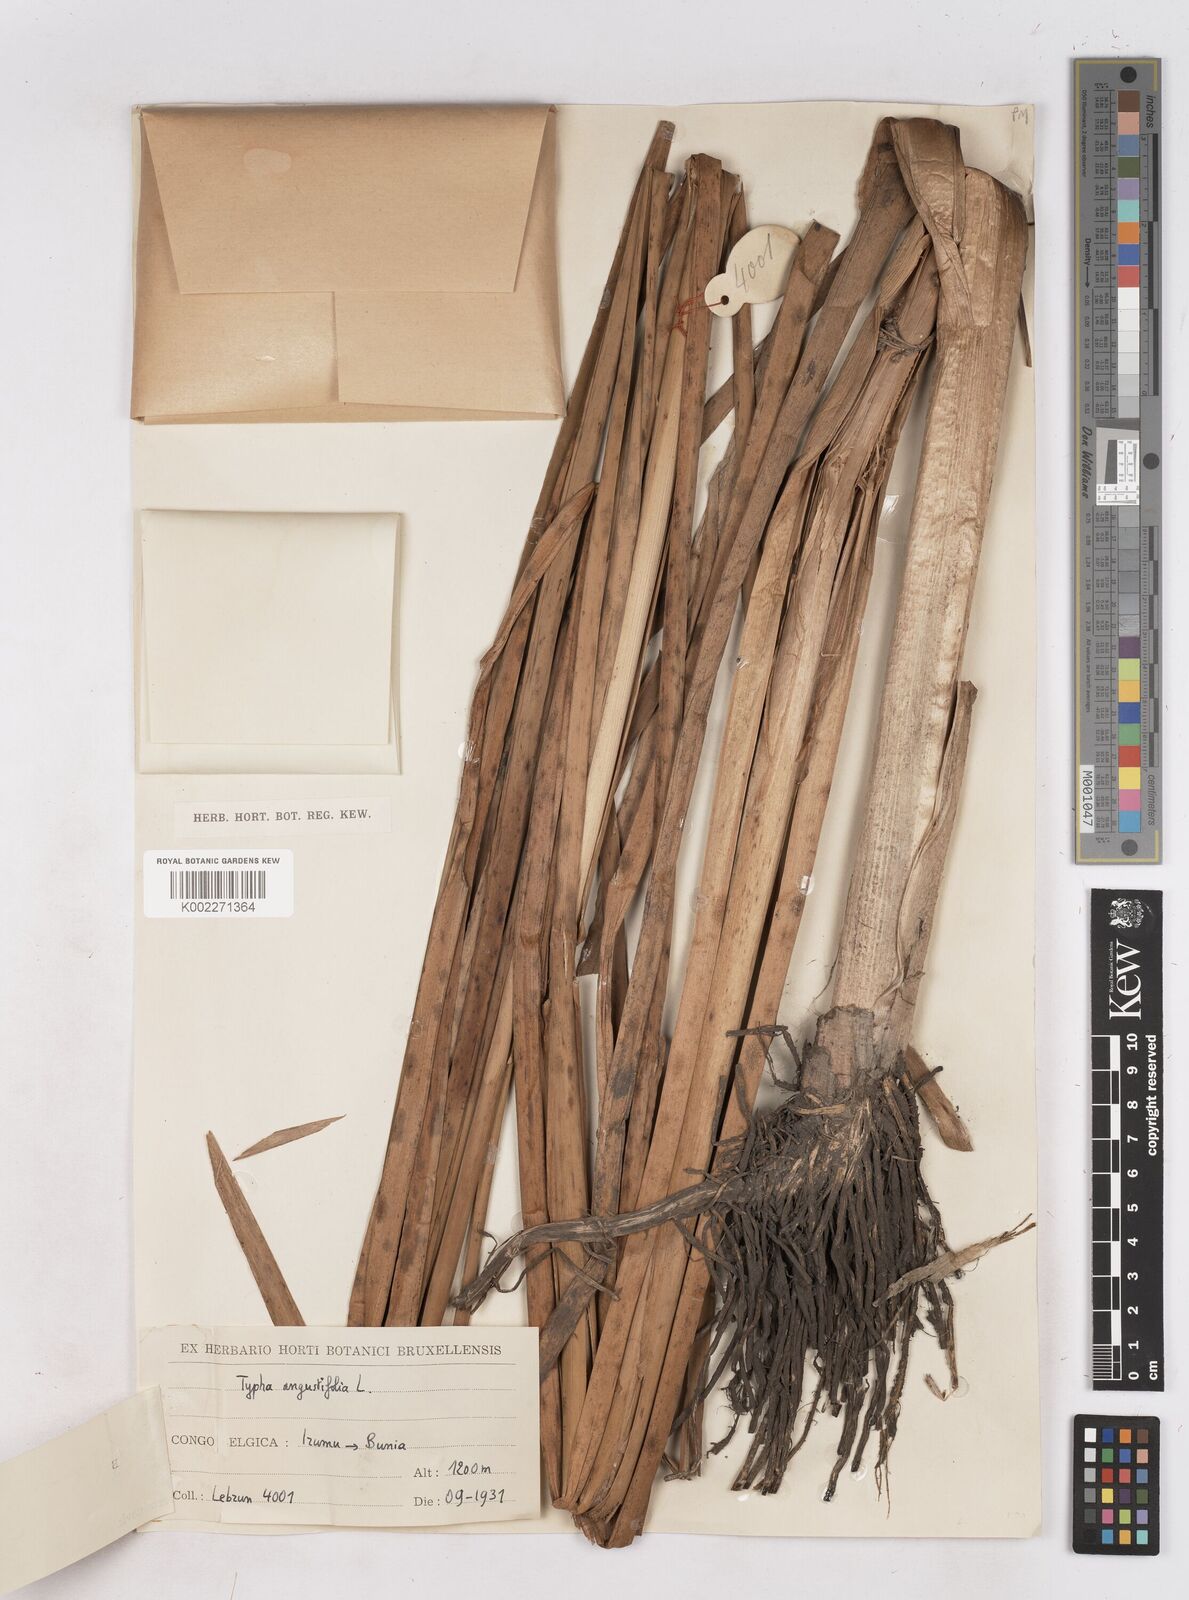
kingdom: Plantae
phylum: Tracheophyta
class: Liliopsida
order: Poales
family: Typhaceae
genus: Typha
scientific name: Typha capensis
